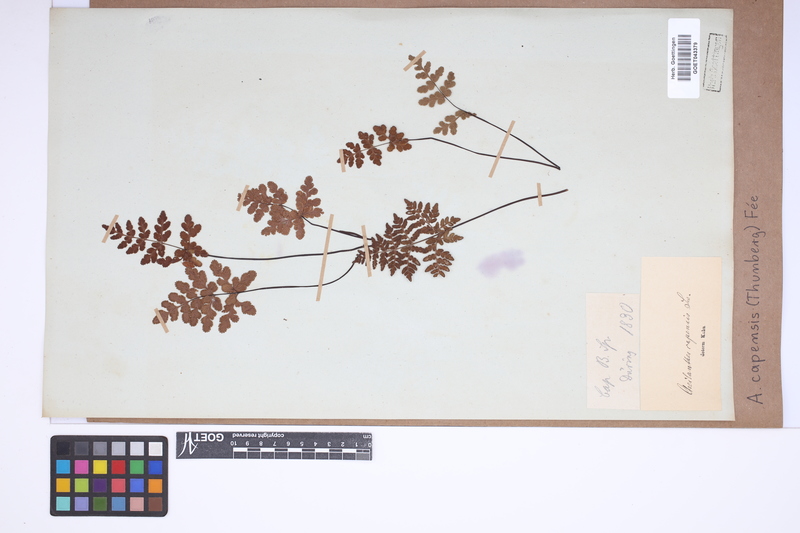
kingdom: Plantae
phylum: Tracheophyta
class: Polypodiopsida
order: Polypodiales
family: Pteridaceae
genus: Cheilanthes
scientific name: Cheilanthes capensis
